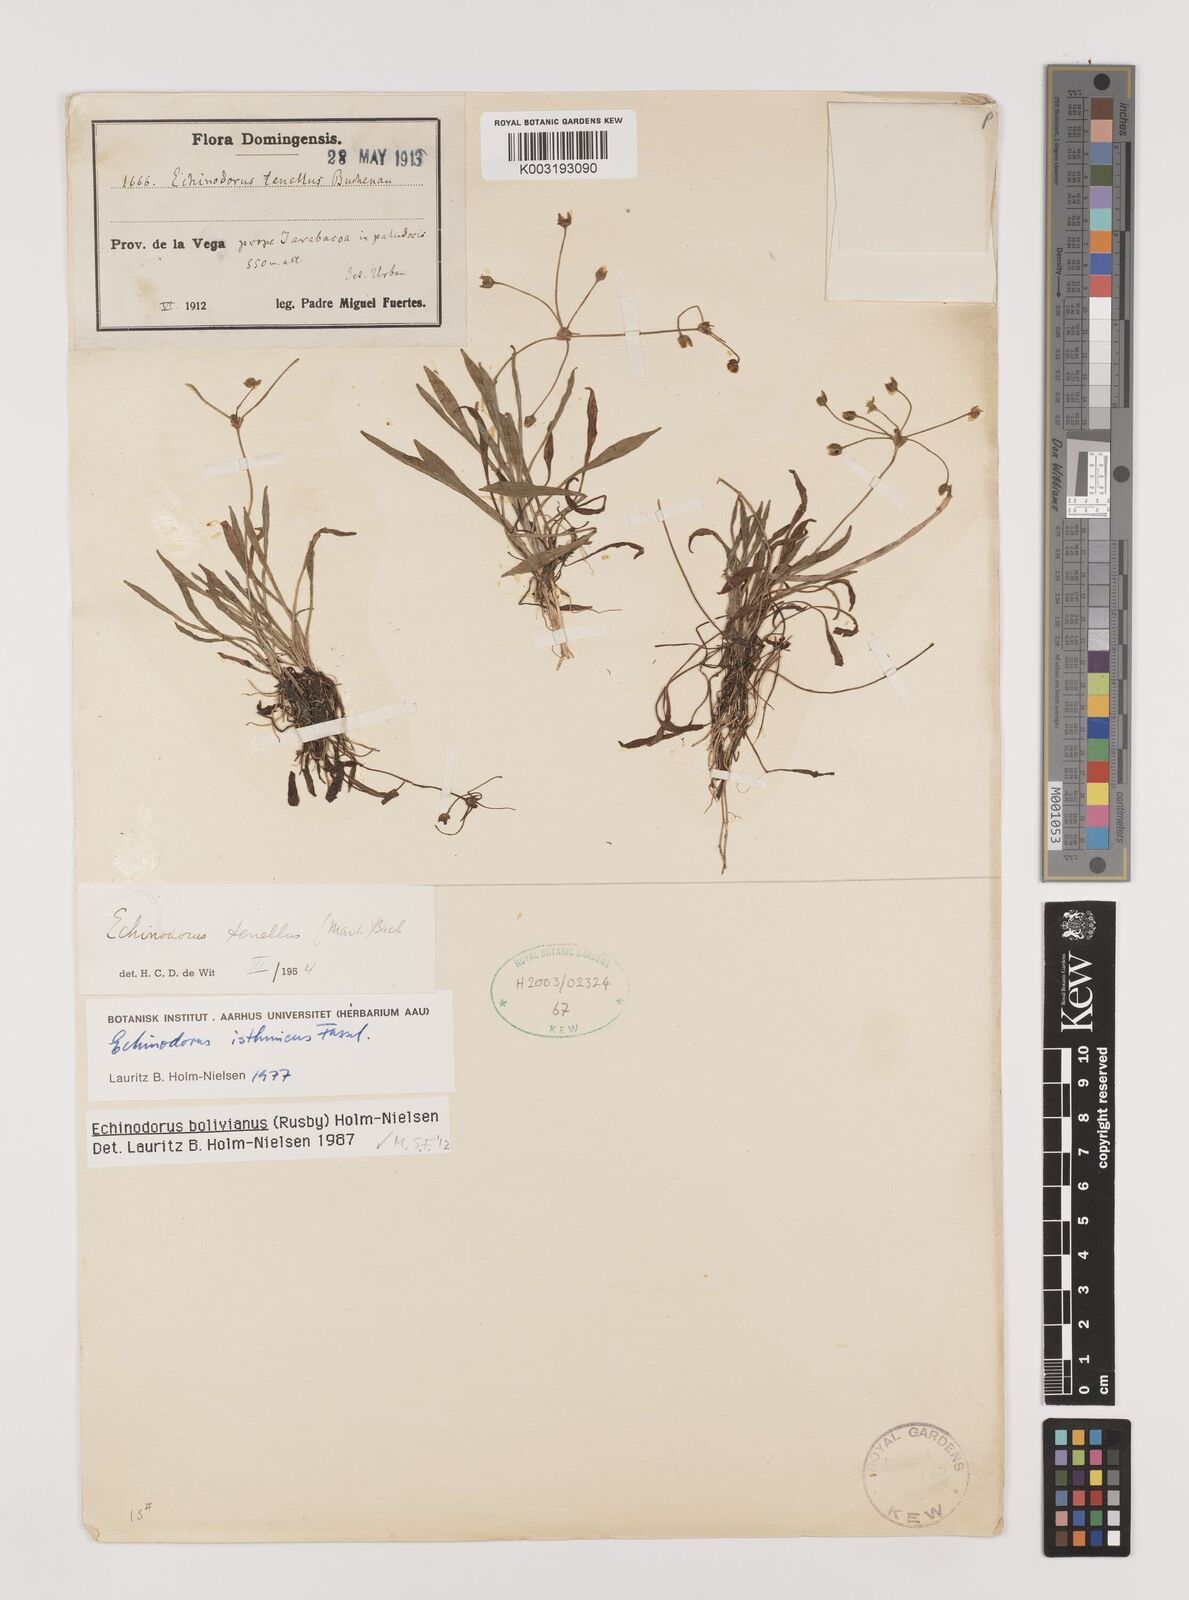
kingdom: Plantae
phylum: Tracheophyta
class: Liliopsida
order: Alismatales
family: Alismataceae
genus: Helanthium
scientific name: Helanthium bolivianum
